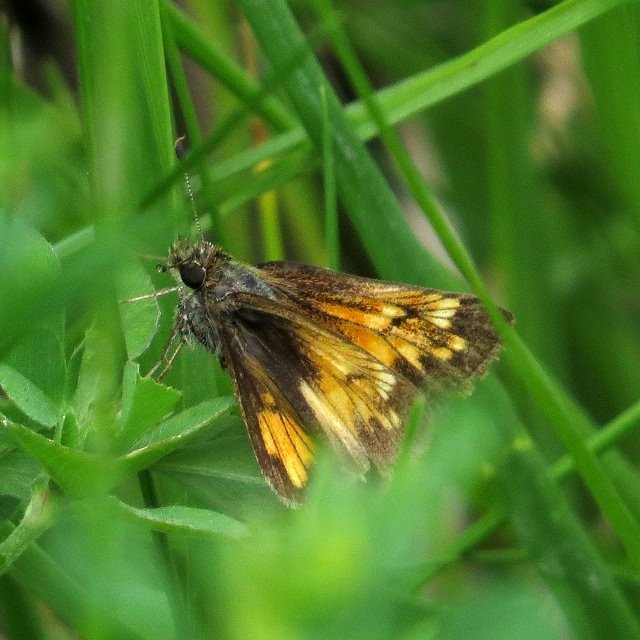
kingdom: Animalia
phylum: Arthropoda
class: Insecta
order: Lepidoptera
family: Hesperiidae
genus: Lon
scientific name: Lon hobomok
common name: Hobomok Skipper
